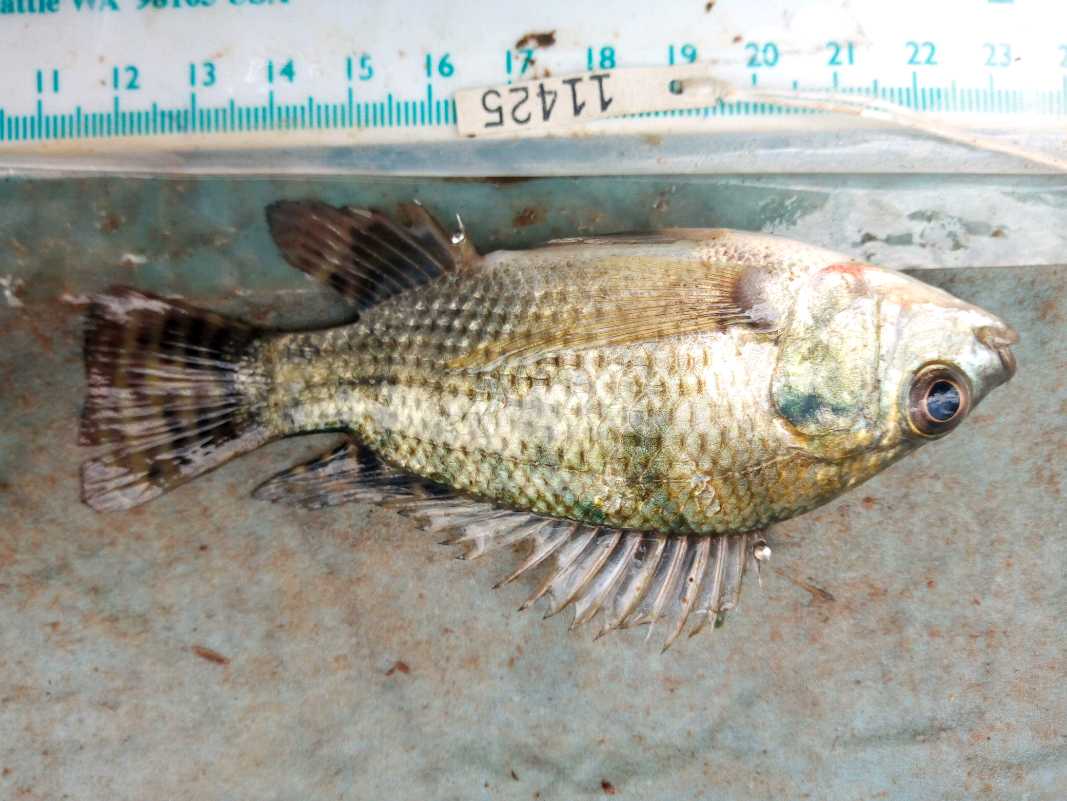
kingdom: Animalia
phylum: Chordata
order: Perciformes
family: Cichlidae
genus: Oreochromis
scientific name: Oreochromis niloticus
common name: Nile tilapia
